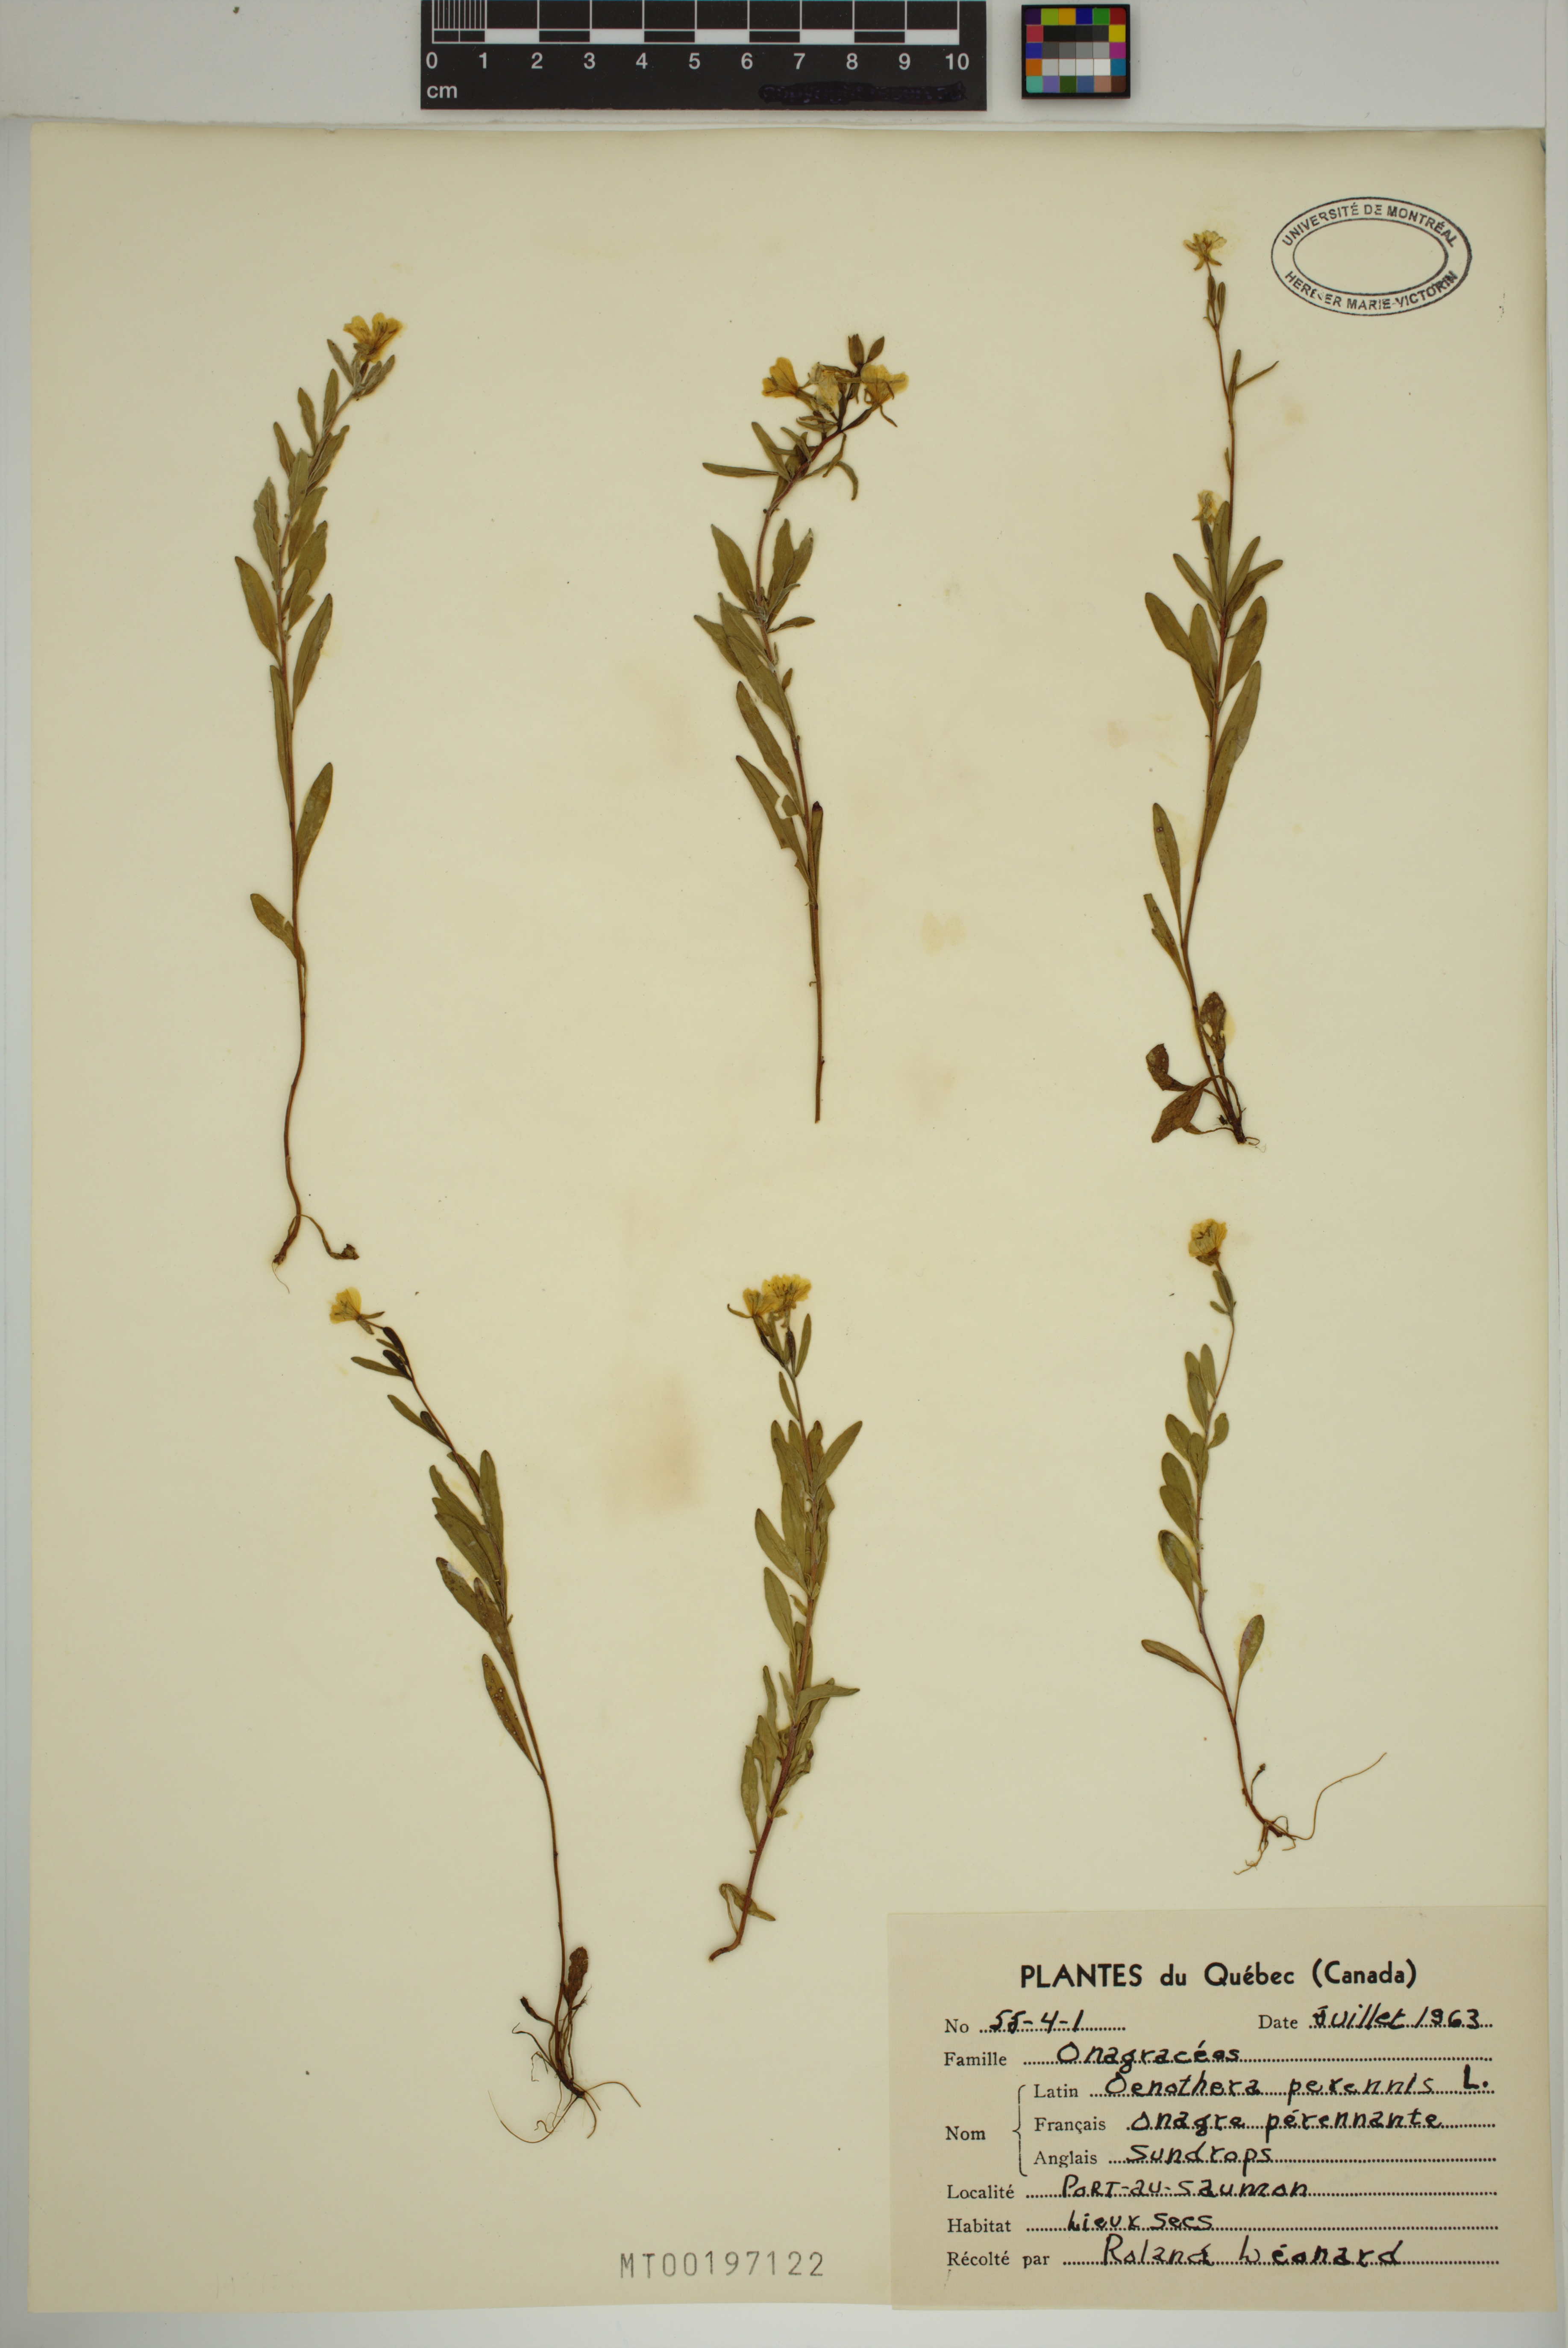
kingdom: Plantae
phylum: Tracheophyta
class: Magnoliopsida
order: Myrtales
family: Onagraceae
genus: Oenothera
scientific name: Oenothera perennis
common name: Small sundrops
